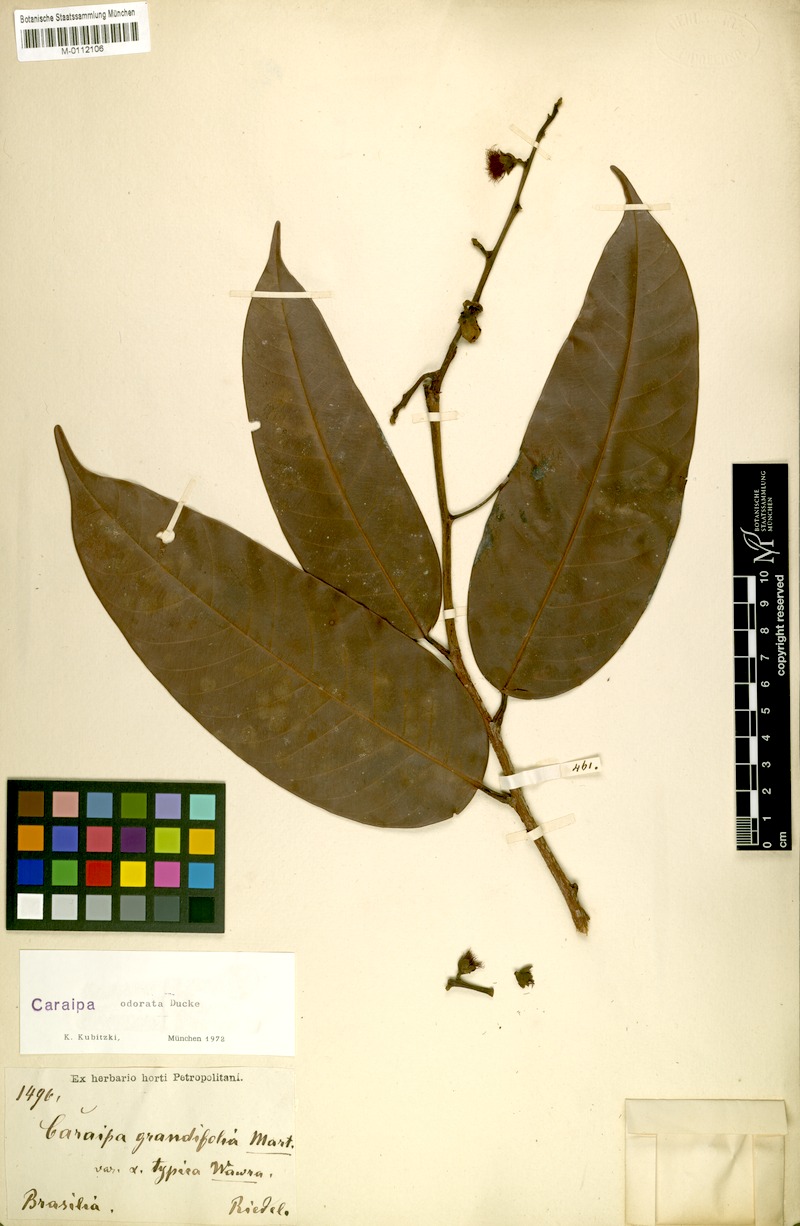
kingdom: Plantae
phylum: Tracheophyta
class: Magnoliopsida
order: Malpighiales
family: Calophyllaceae
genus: Caraipa
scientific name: Caraipa odorata
